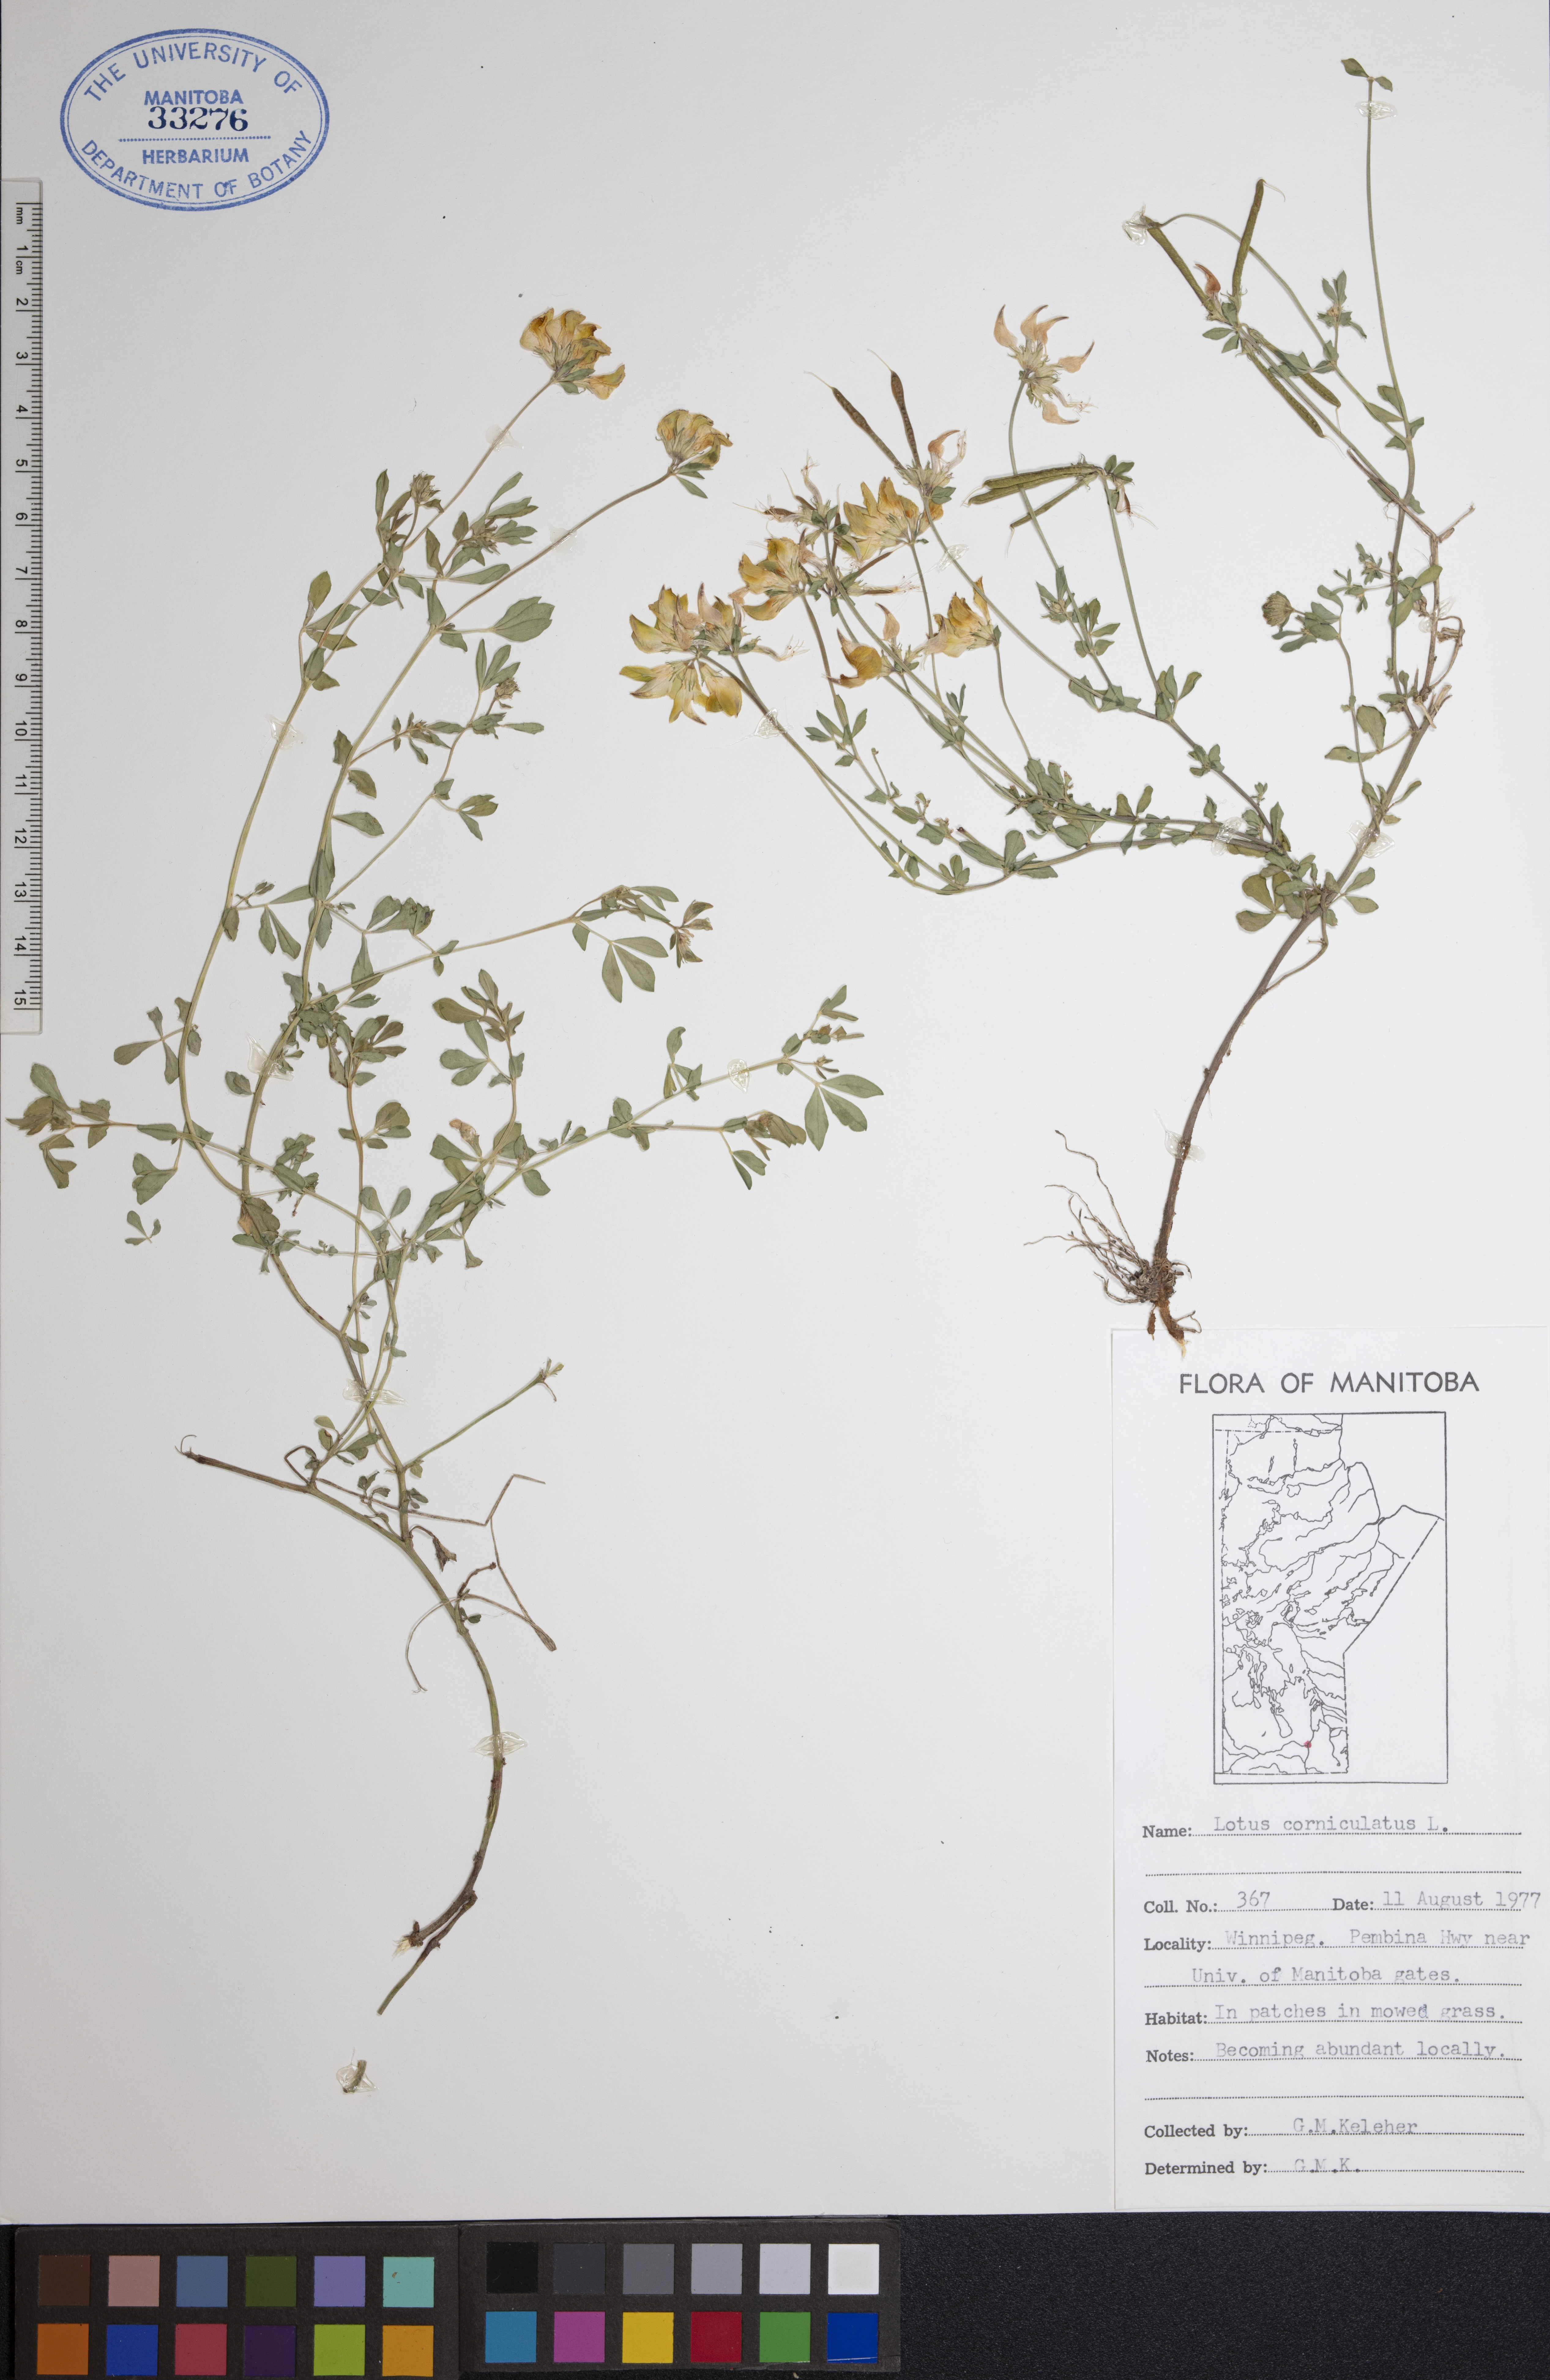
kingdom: Plantae
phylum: Tracheophyta
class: Magnoliopsida
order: Fabales
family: Fabaceae
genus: Lotus
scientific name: Lotus corniculatus
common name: Common bird's-foot-trefoil
